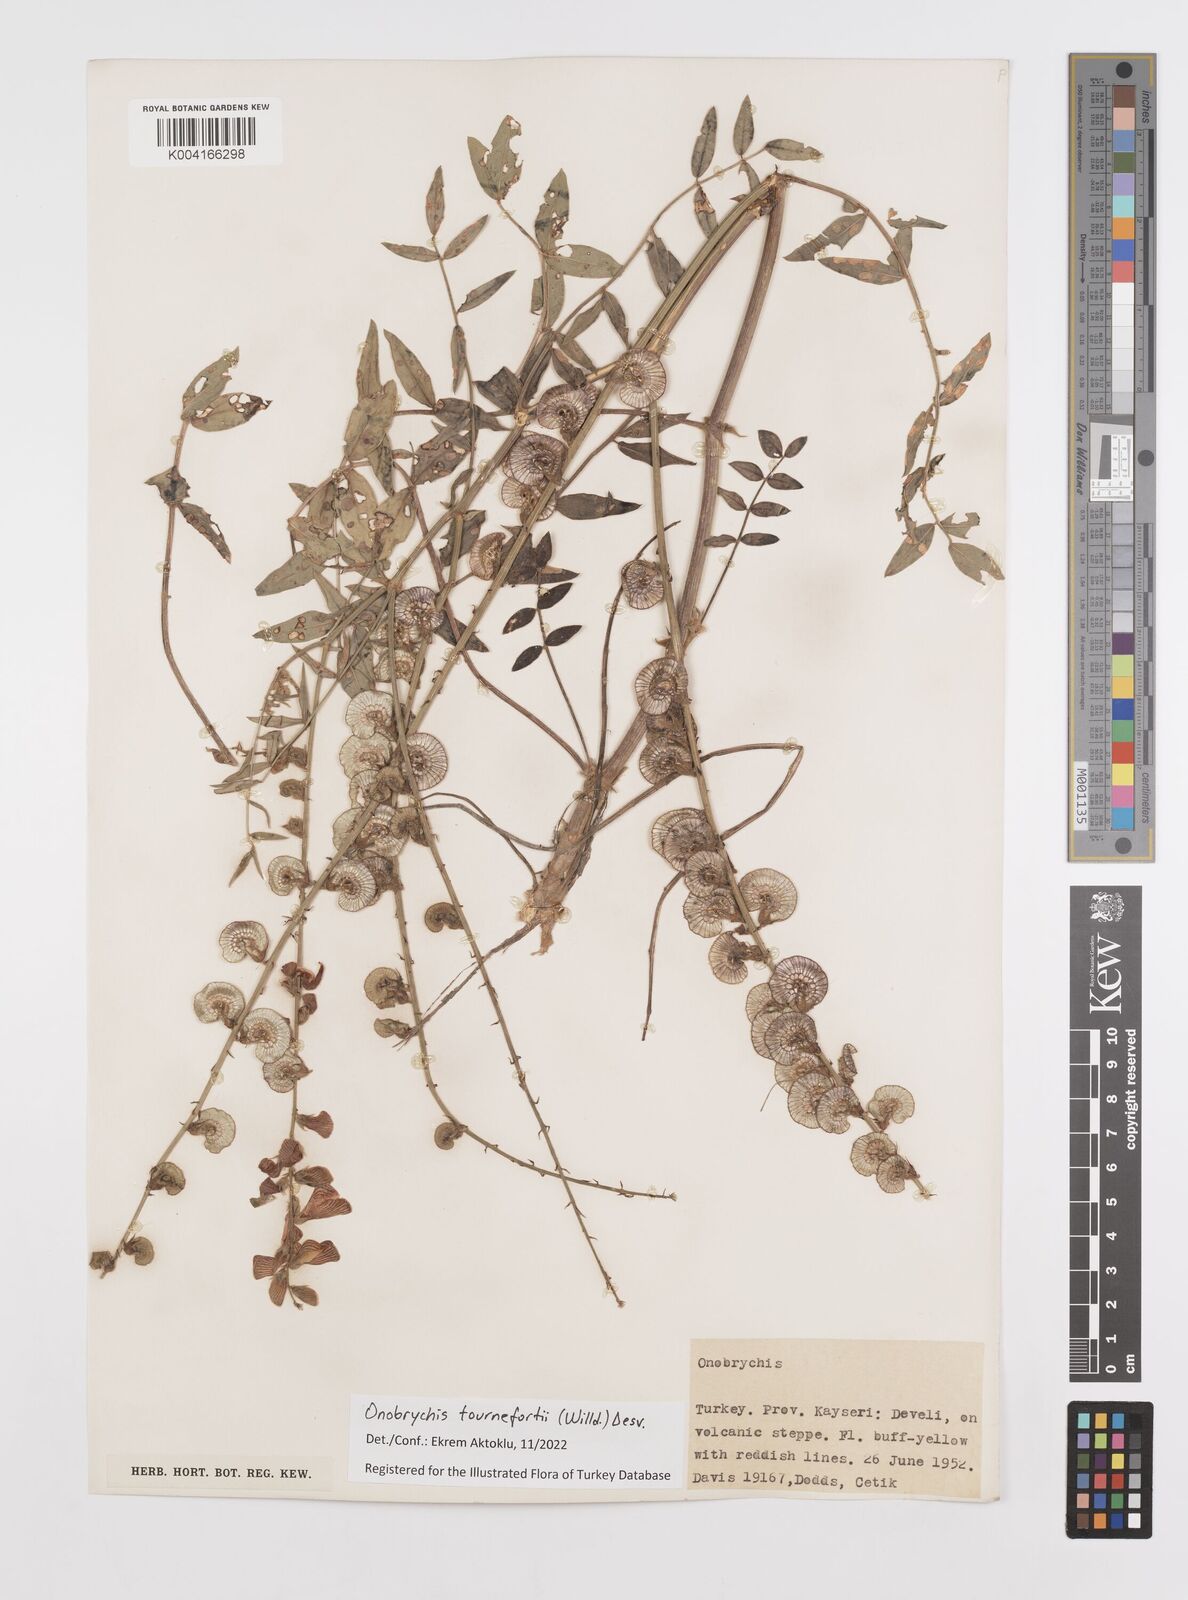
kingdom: Plantae
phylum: Tracheophyta
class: Magnoliopsida
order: Fabales
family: Fabaceae
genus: Onobrychis
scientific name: Onobrychis tournefortii
